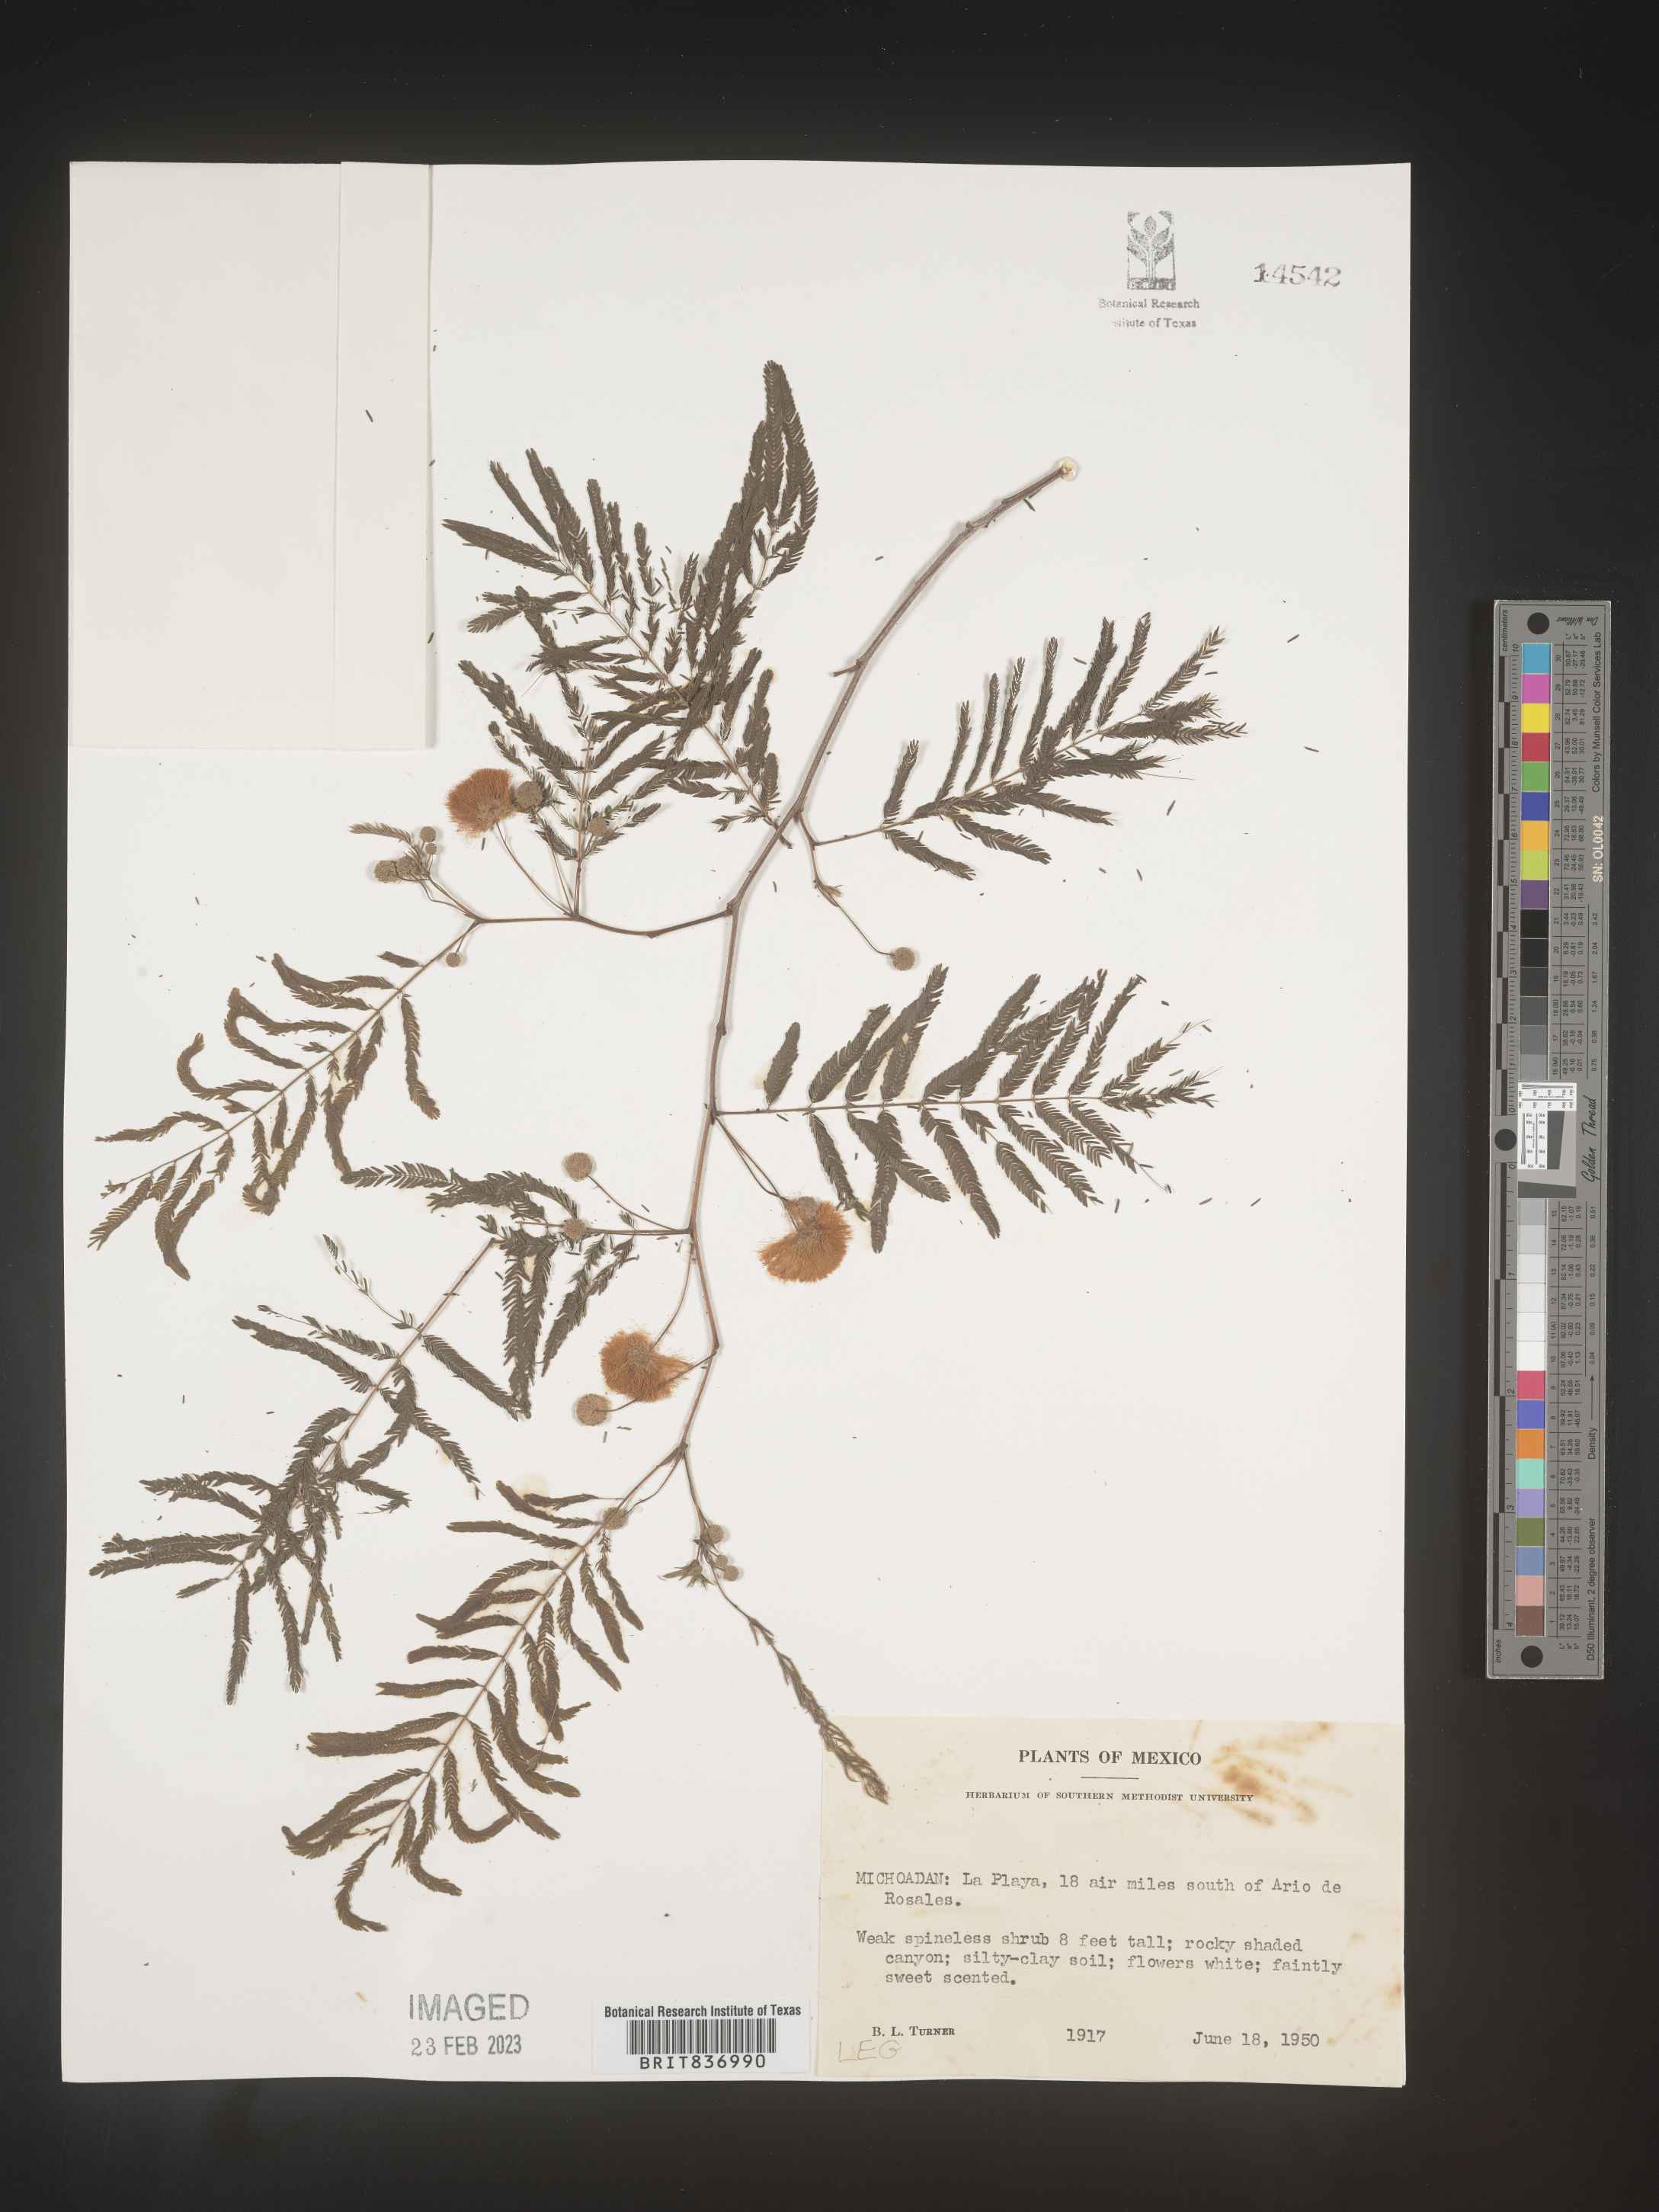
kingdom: Plantae
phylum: Tracheophyta
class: Magnoliopsida
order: Fabales
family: Fabaceae
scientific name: Fabaceae
